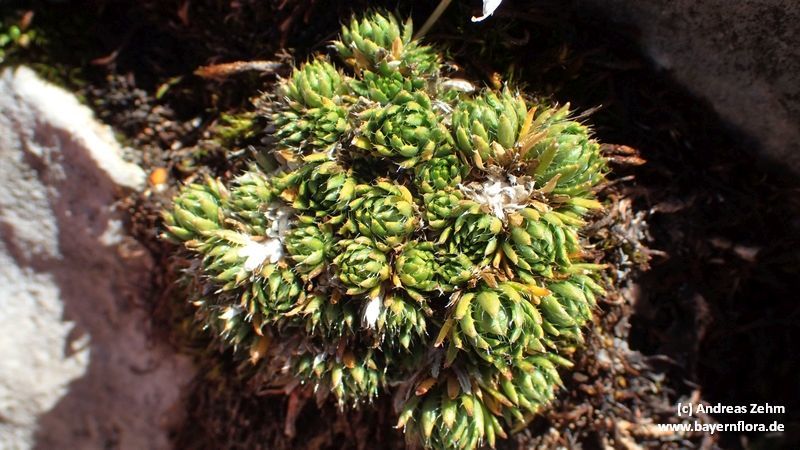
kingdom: Plantae
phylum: Tracheophyta
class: Magnoliopsida
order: Brassicales
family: Brassicaceae
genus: Draba
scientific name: Draba aizoides
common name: Yellow whitlowgrass
